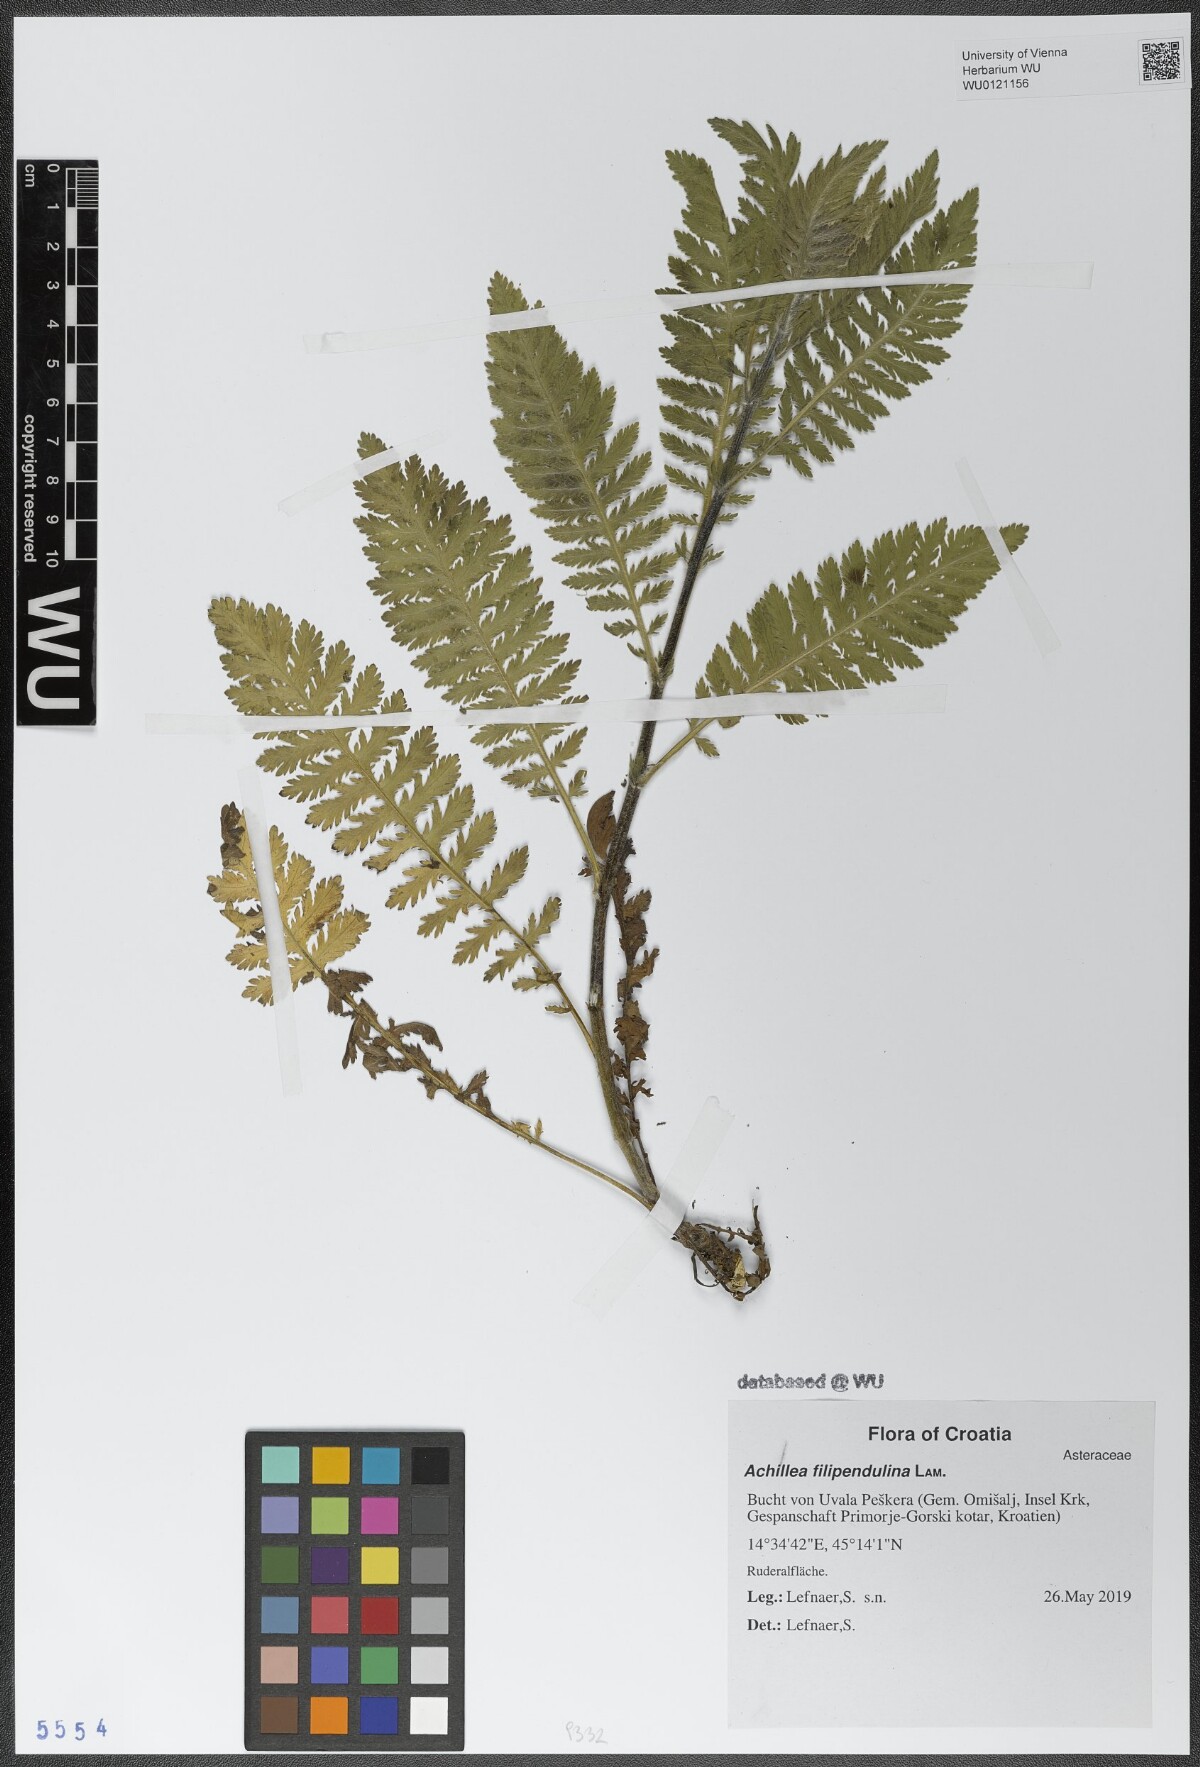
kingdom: Plantae
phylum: Tracheophyta
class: Magnoliopsida
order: Asterales
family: Asteraceae
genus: Achillea
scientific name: Achillea filipendulina
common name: Fernleaf yarrow
